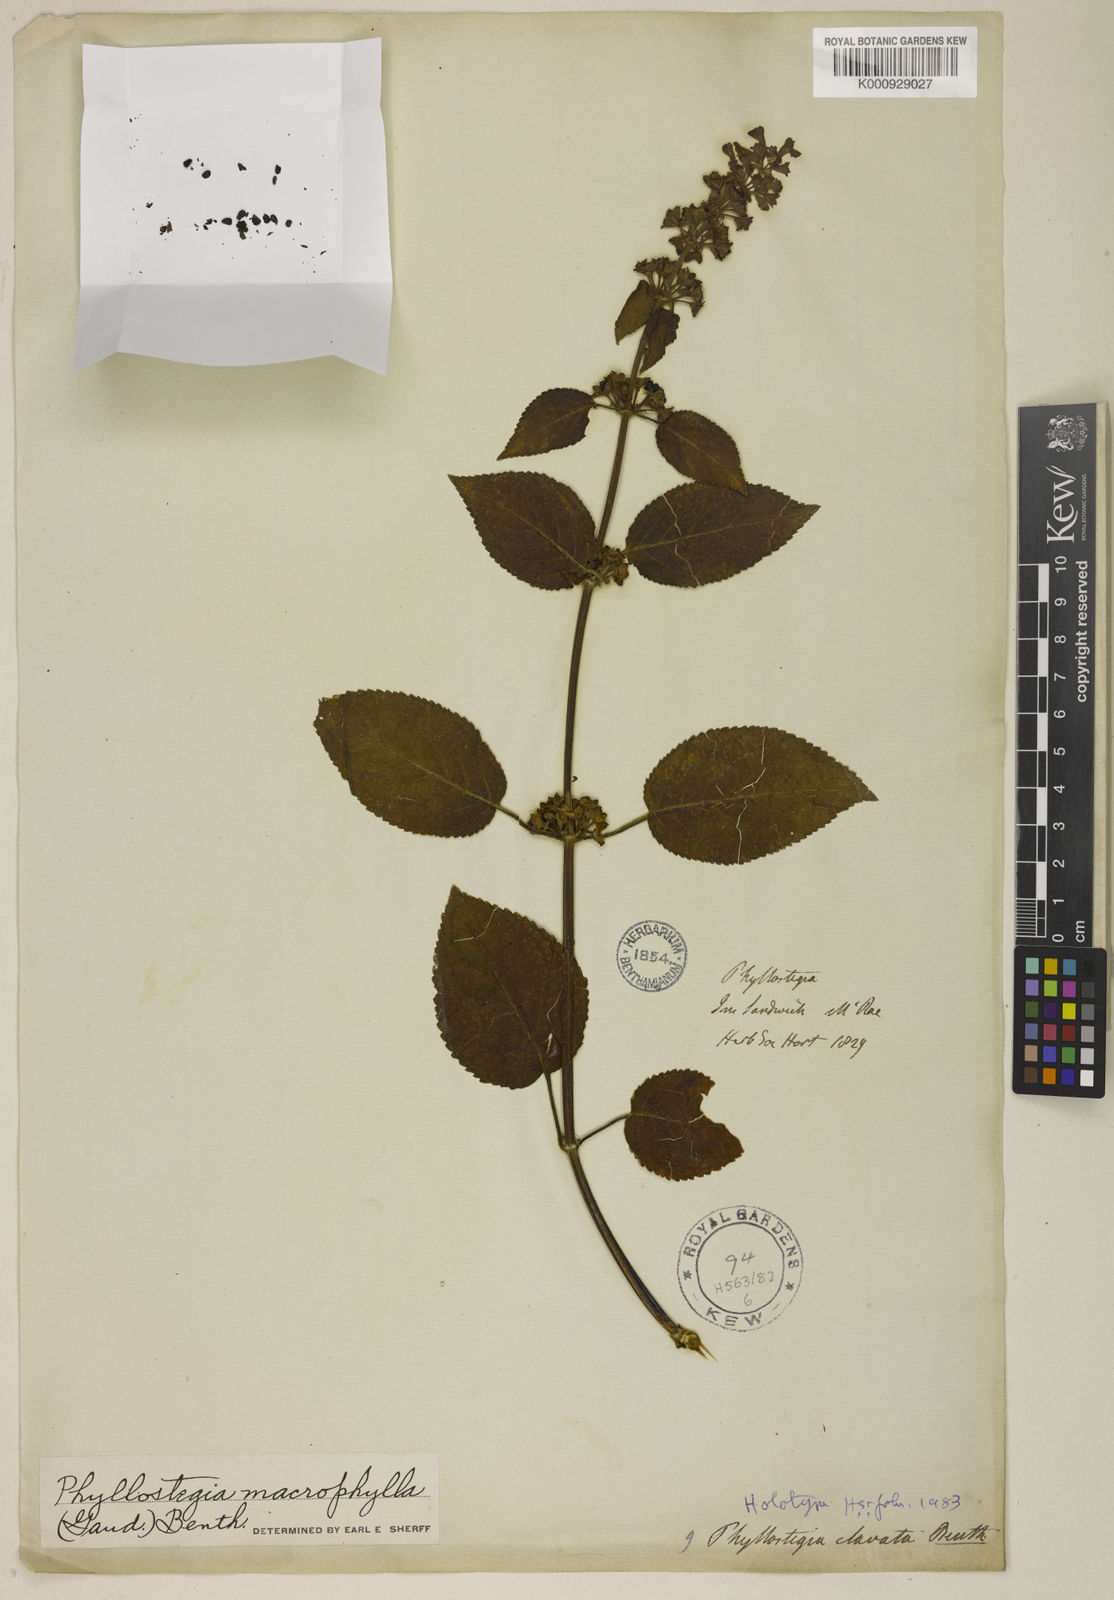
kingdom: Plantae
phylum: Tracheophyta
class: Magnoliopsida
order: Lamiales
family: Lamiaceae
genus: Phyllostegia
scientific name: Phyllostegia macrophylla
